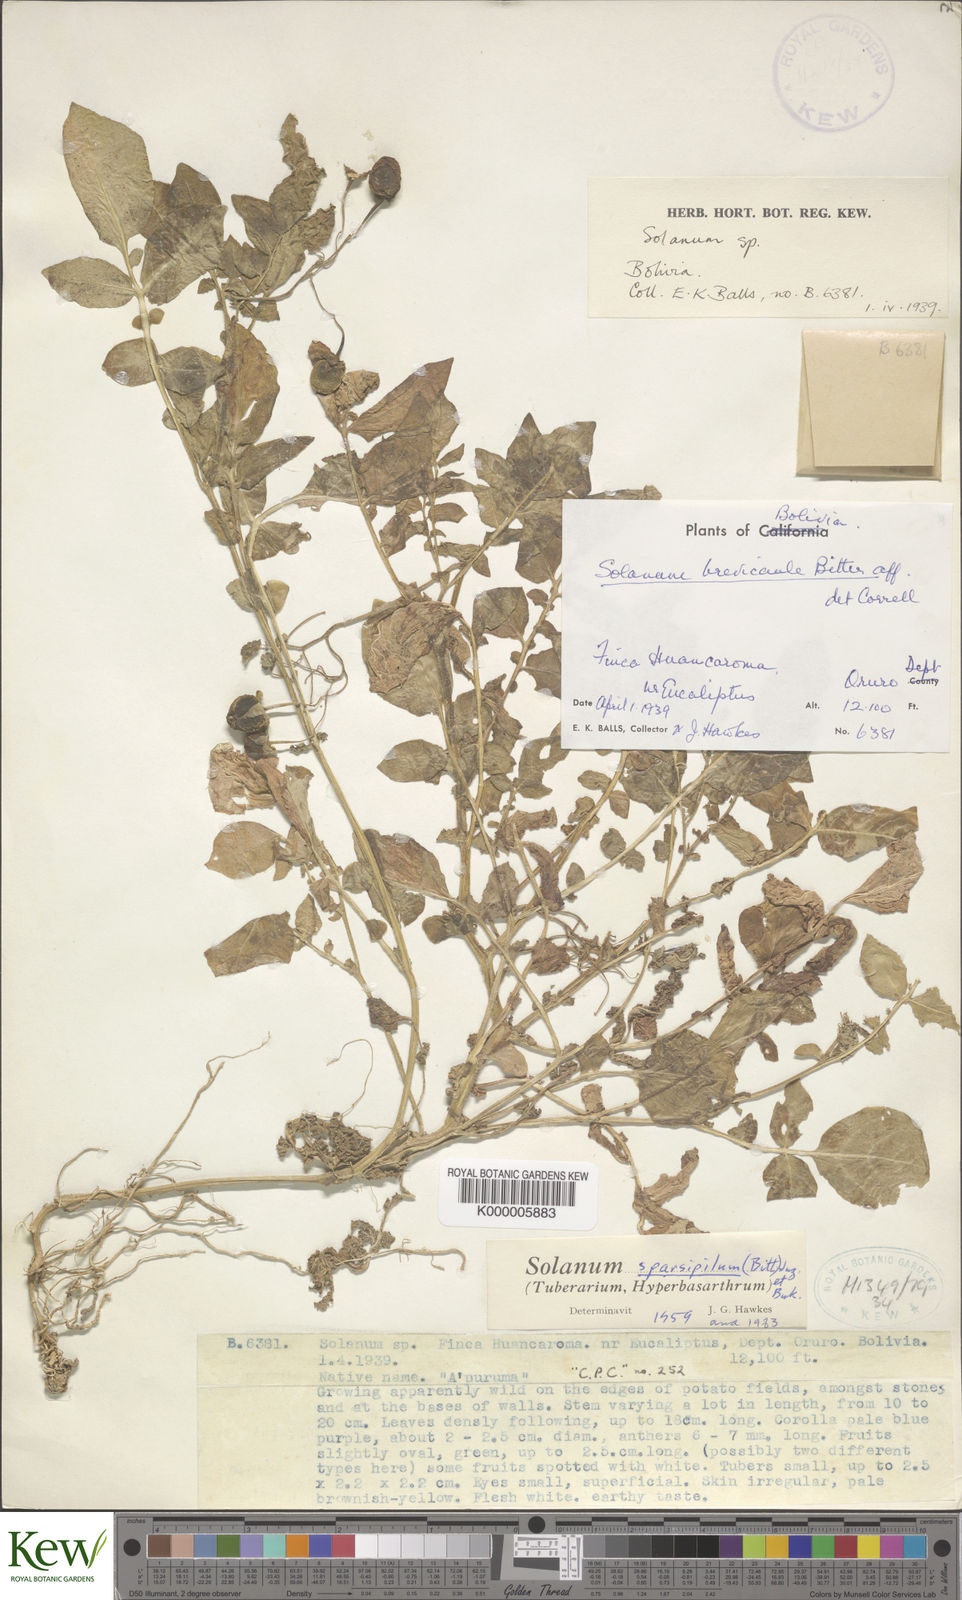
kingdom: Plantae
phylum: Tracheophyta
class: Magnoliopsida
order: Solanales
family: Solanaceae
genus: Solanum
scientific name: Solanum brevicaule
